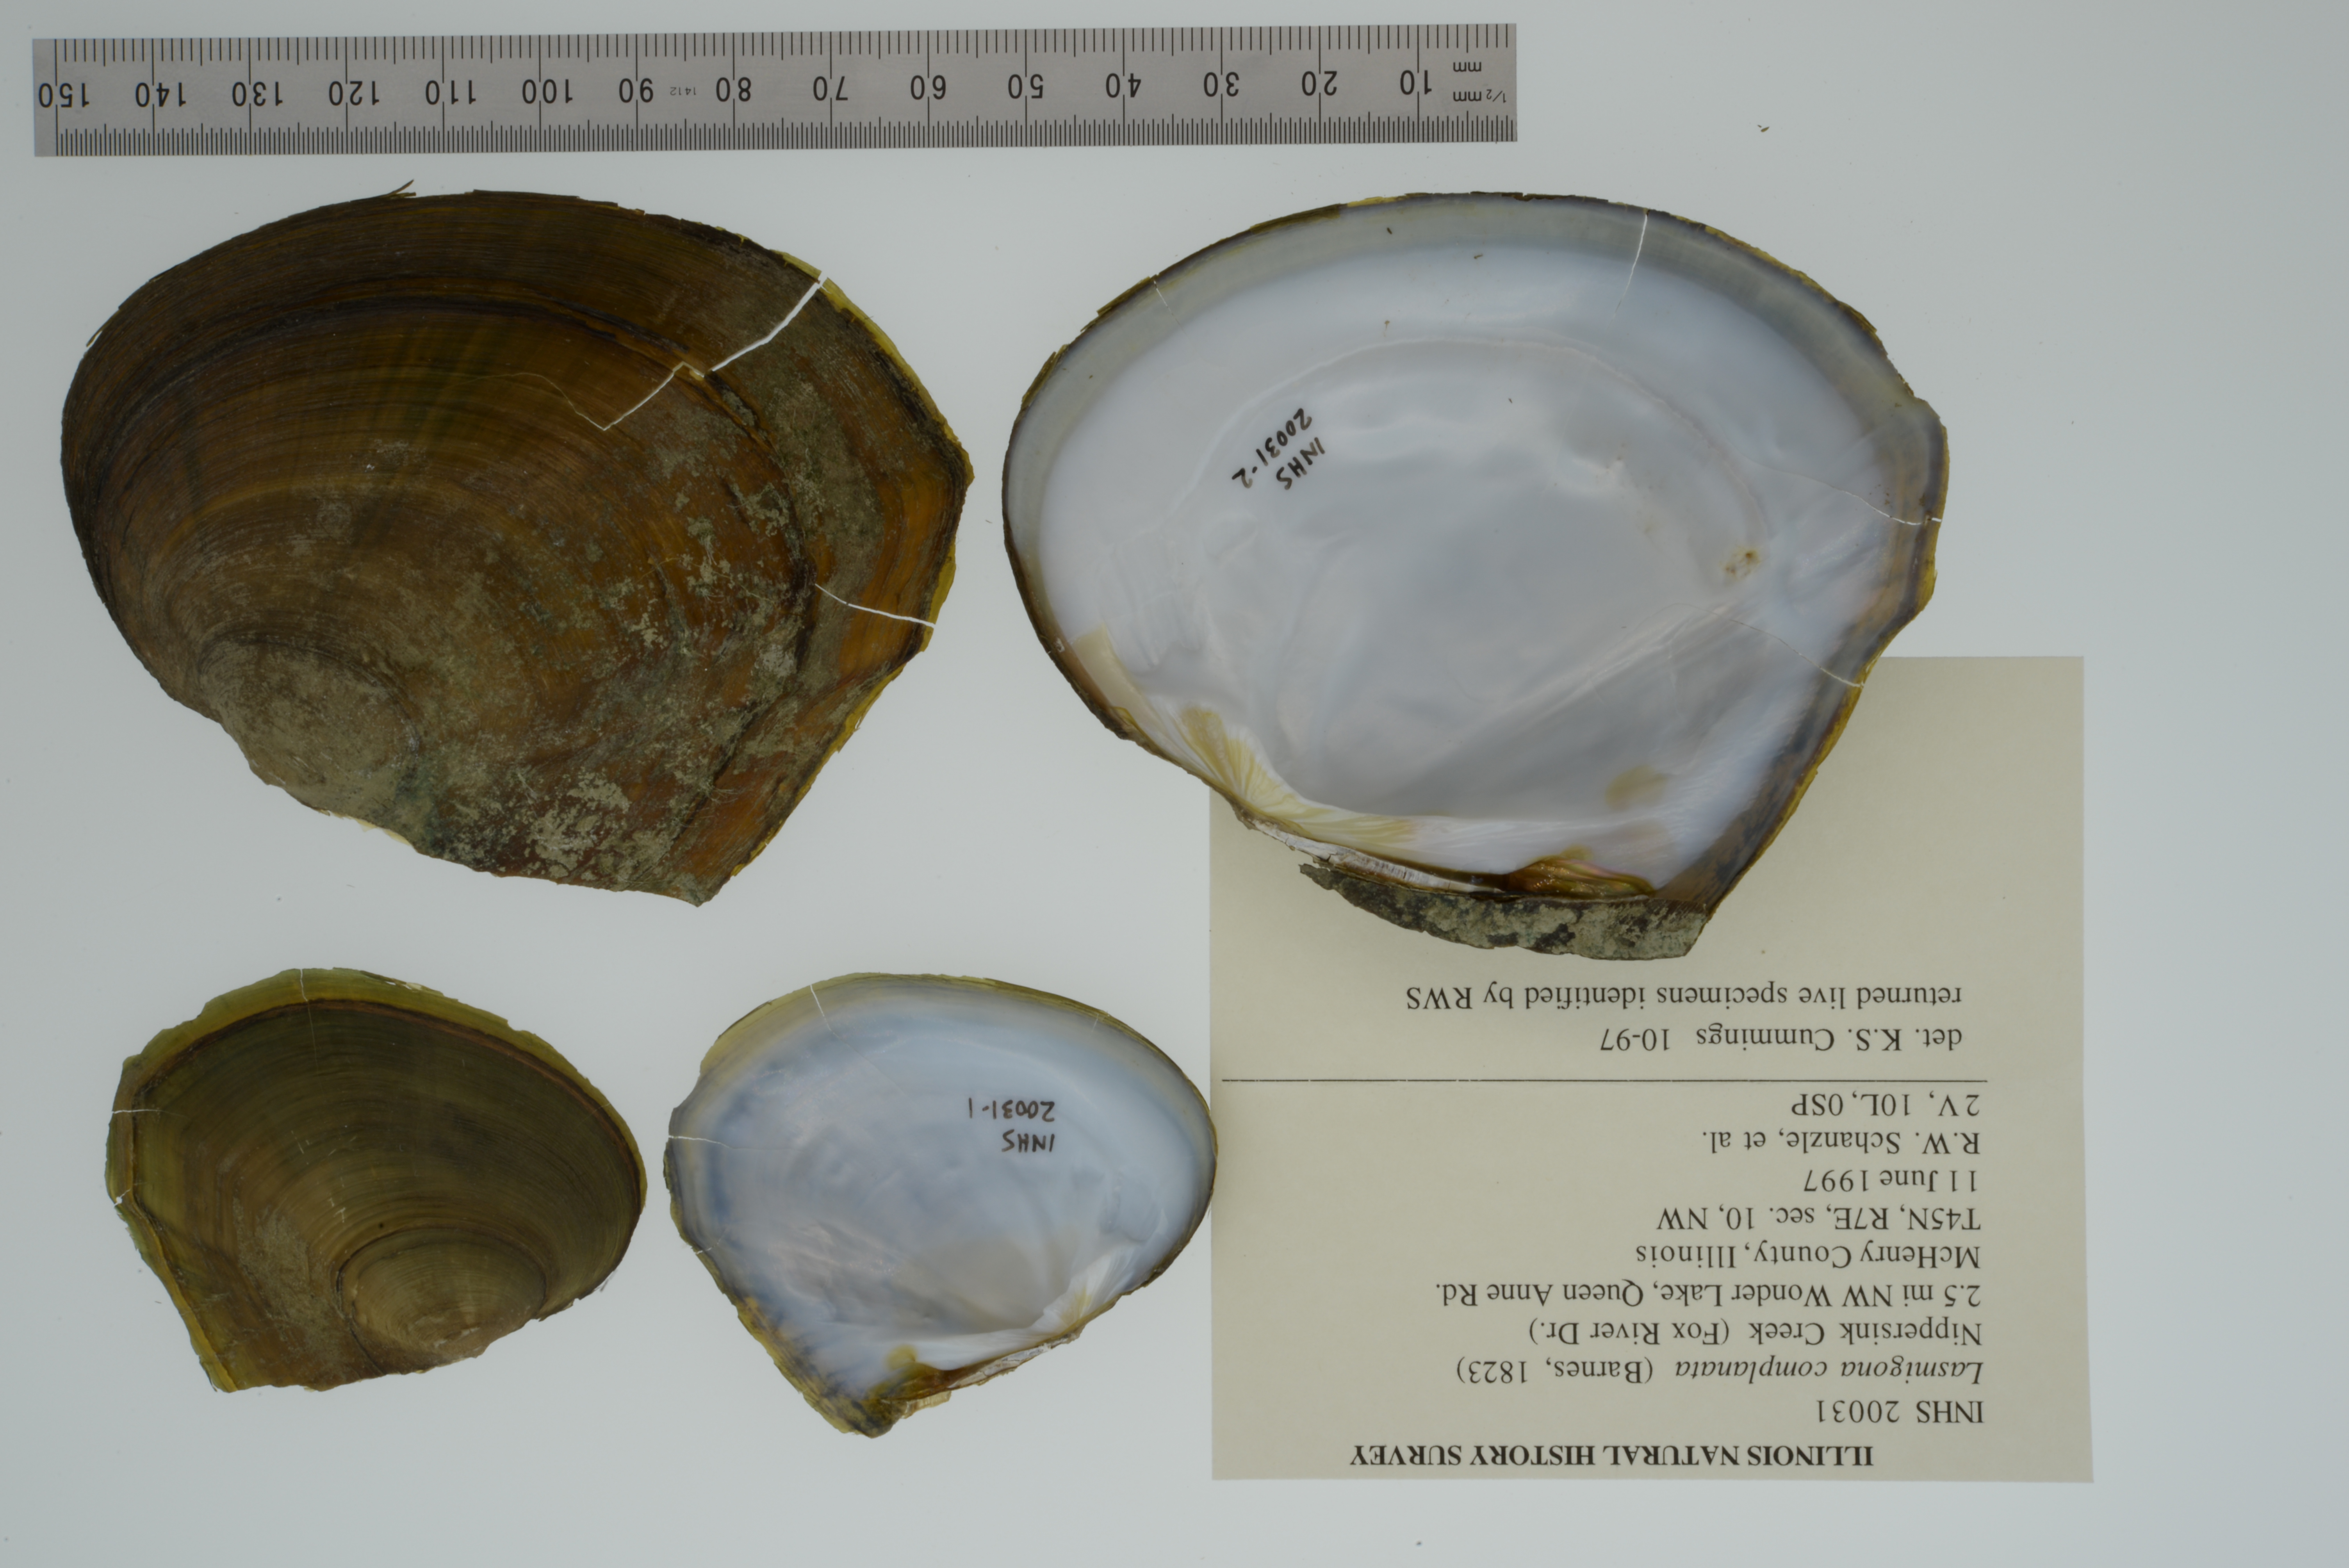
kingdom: Animalia
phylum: Mollusca
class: Bivalvia
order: Unionida
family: Unionidae
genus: Lasmigona
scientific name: Lasmigona complanata
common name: White heelsplitter
